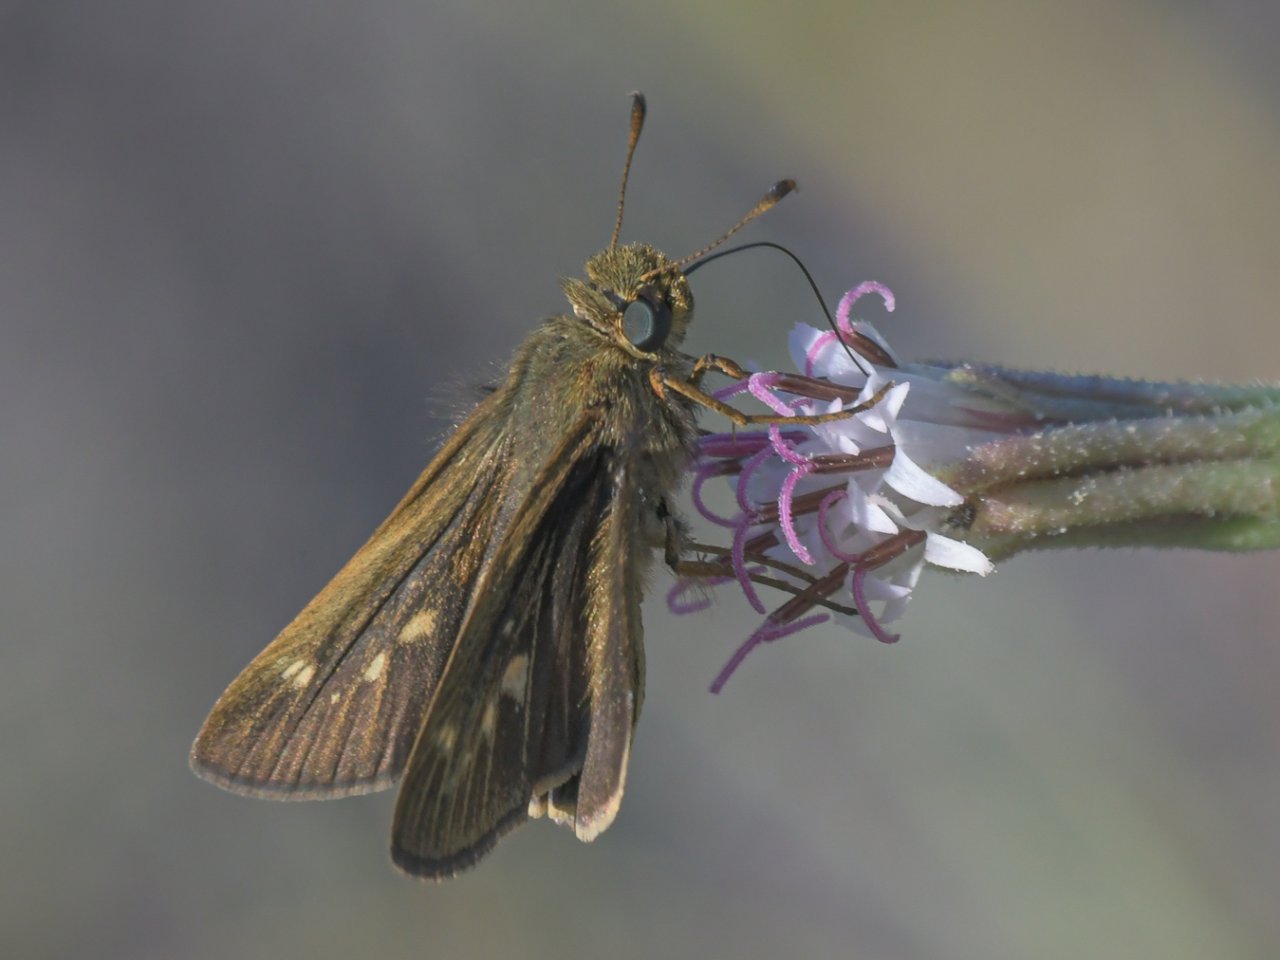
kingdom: Animalia
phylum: Arthropoda
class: Insecta
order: Lepidoptera
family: Hesperiidae
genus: Panoquina
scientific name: Panoquina errans
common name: Wandering Skipper
